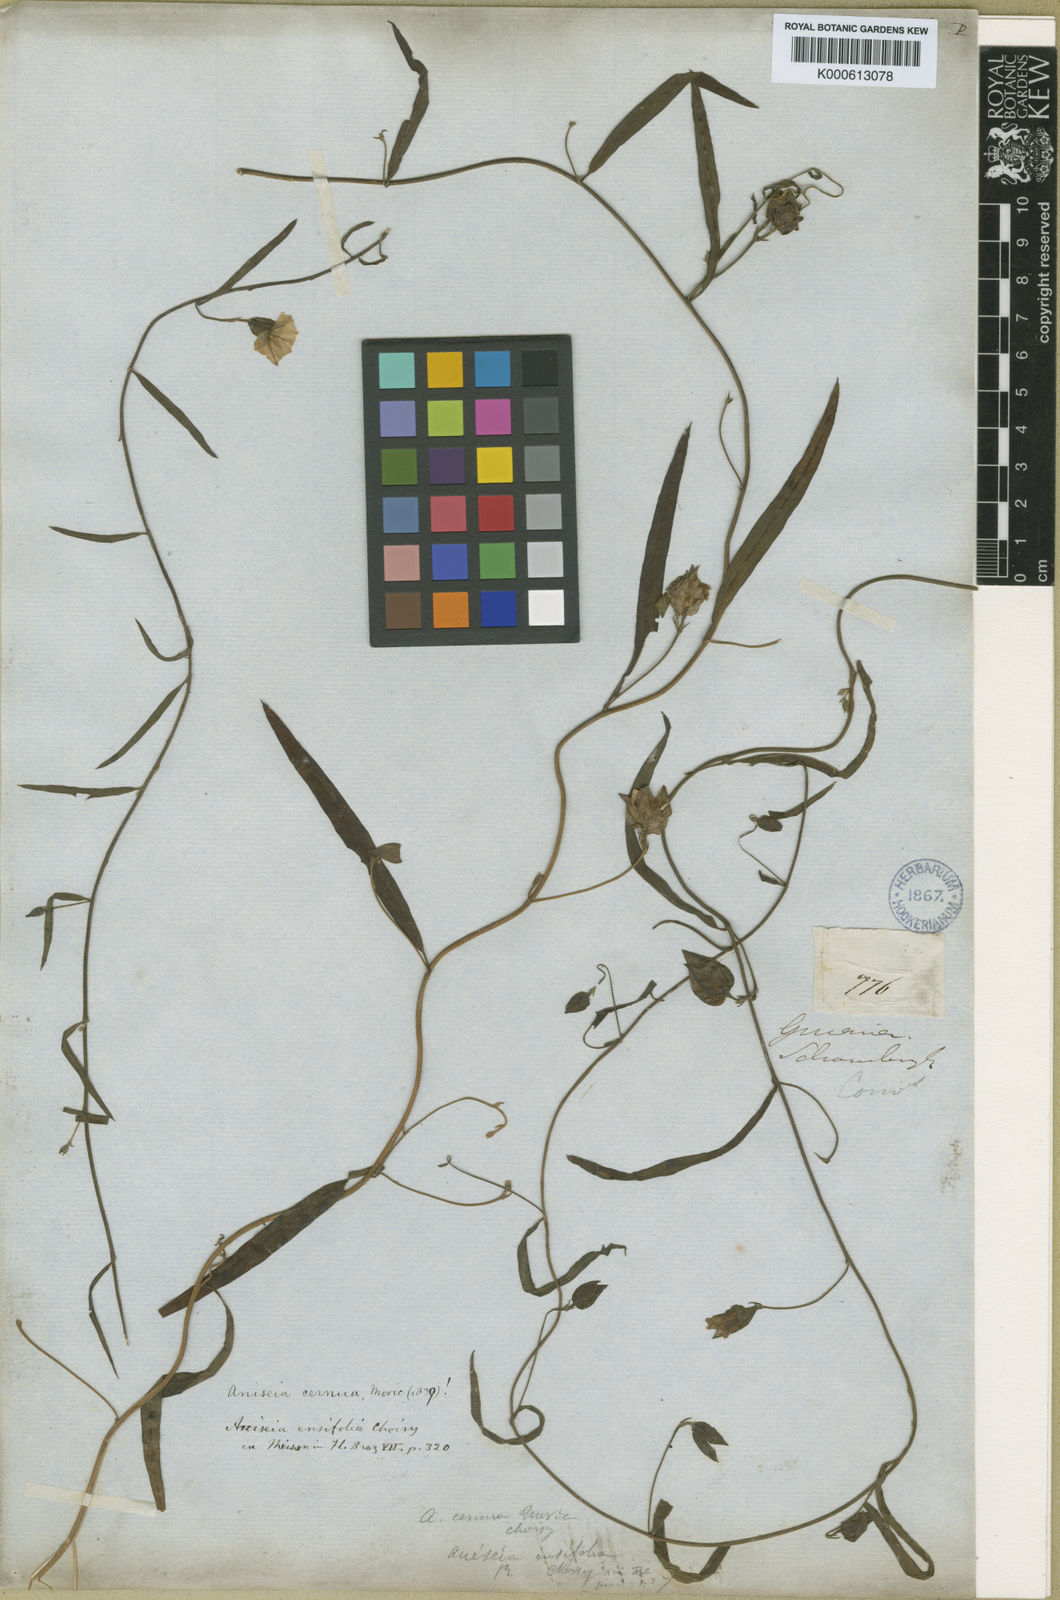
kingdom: Plantae
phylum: Tracheophyta
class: Magnoliopsida
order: Solanales
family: Convolvulaceae
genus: Aniseia
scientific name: Aniseia martinicensis
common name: Kulayadambu
